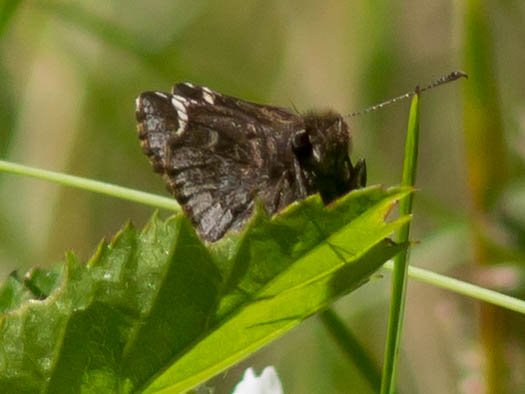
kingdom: Animalia
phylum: Arthropoda
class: Insecta
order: Lepidoptera
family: Hesperiidae
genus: Mastor
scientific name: Mastor vialis
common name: Common Roadside-Skipper
